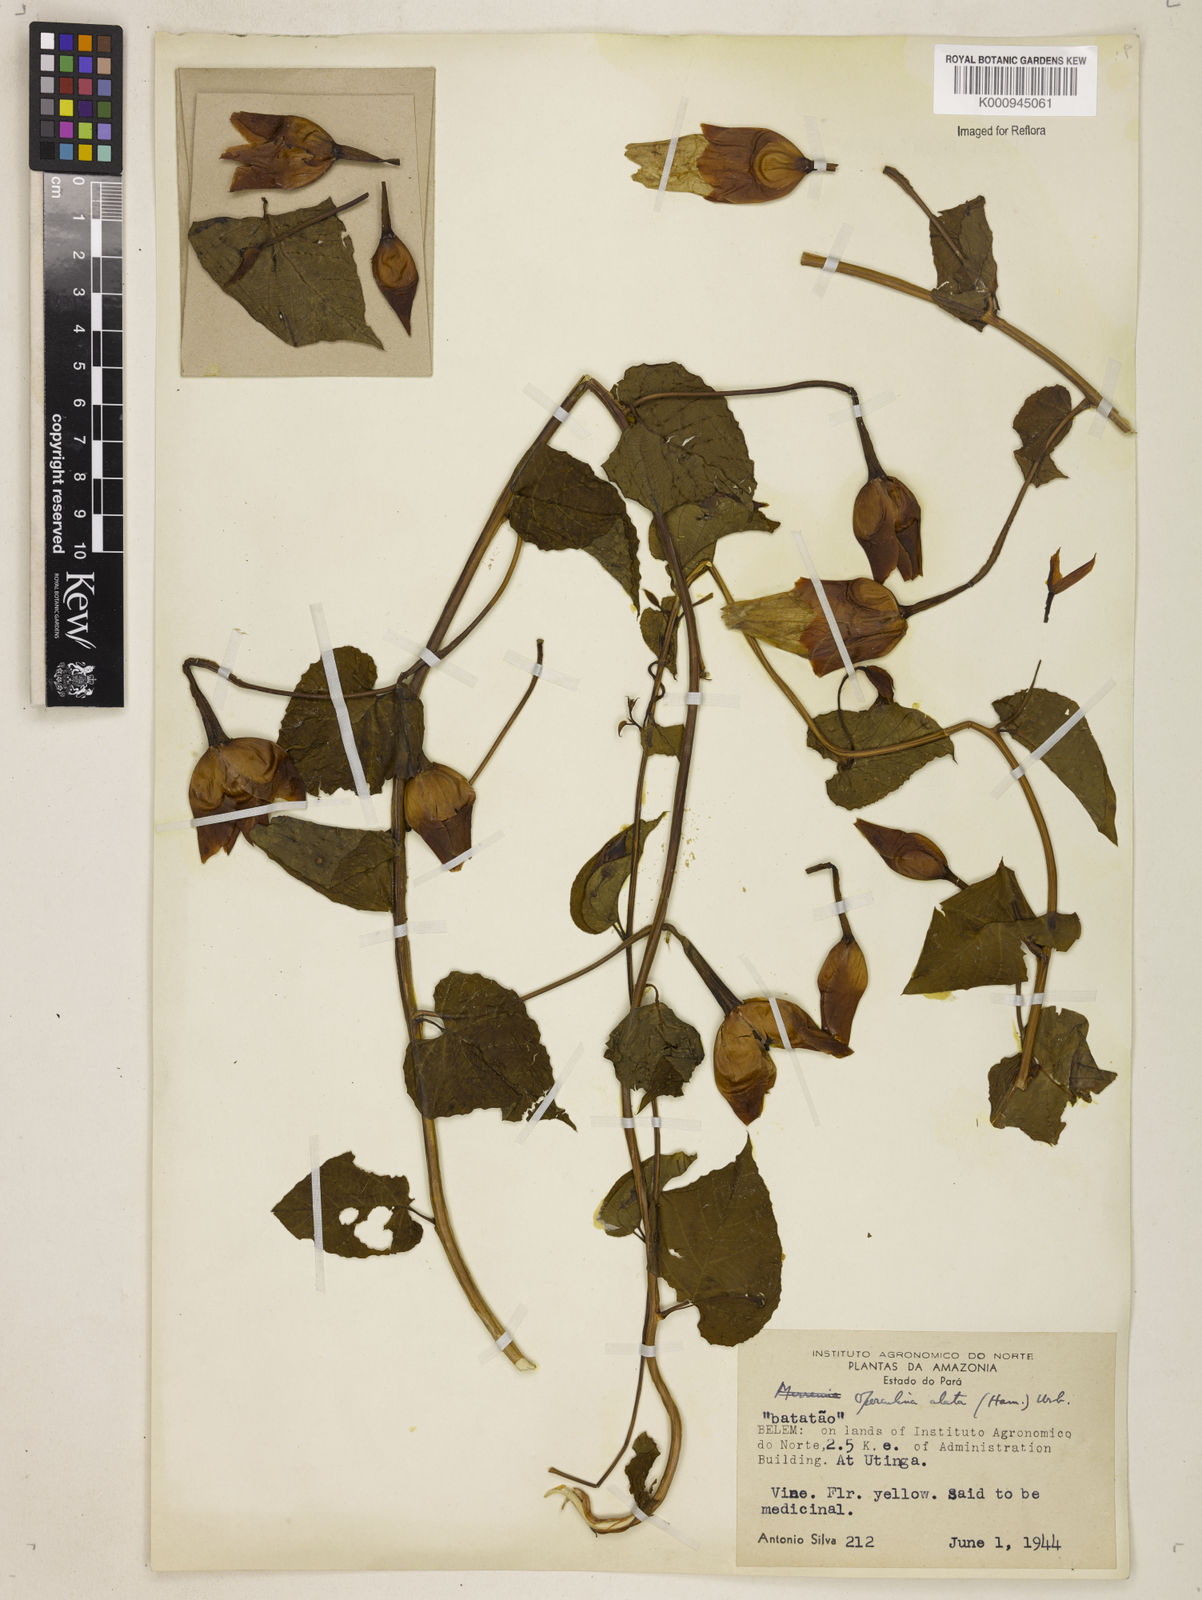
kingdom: Plantae
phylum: Tracheophyta
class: Magnoliopsida
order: Solanales
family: Convolvulaceae
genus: Operculina
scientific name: Operculina hamiltonii
